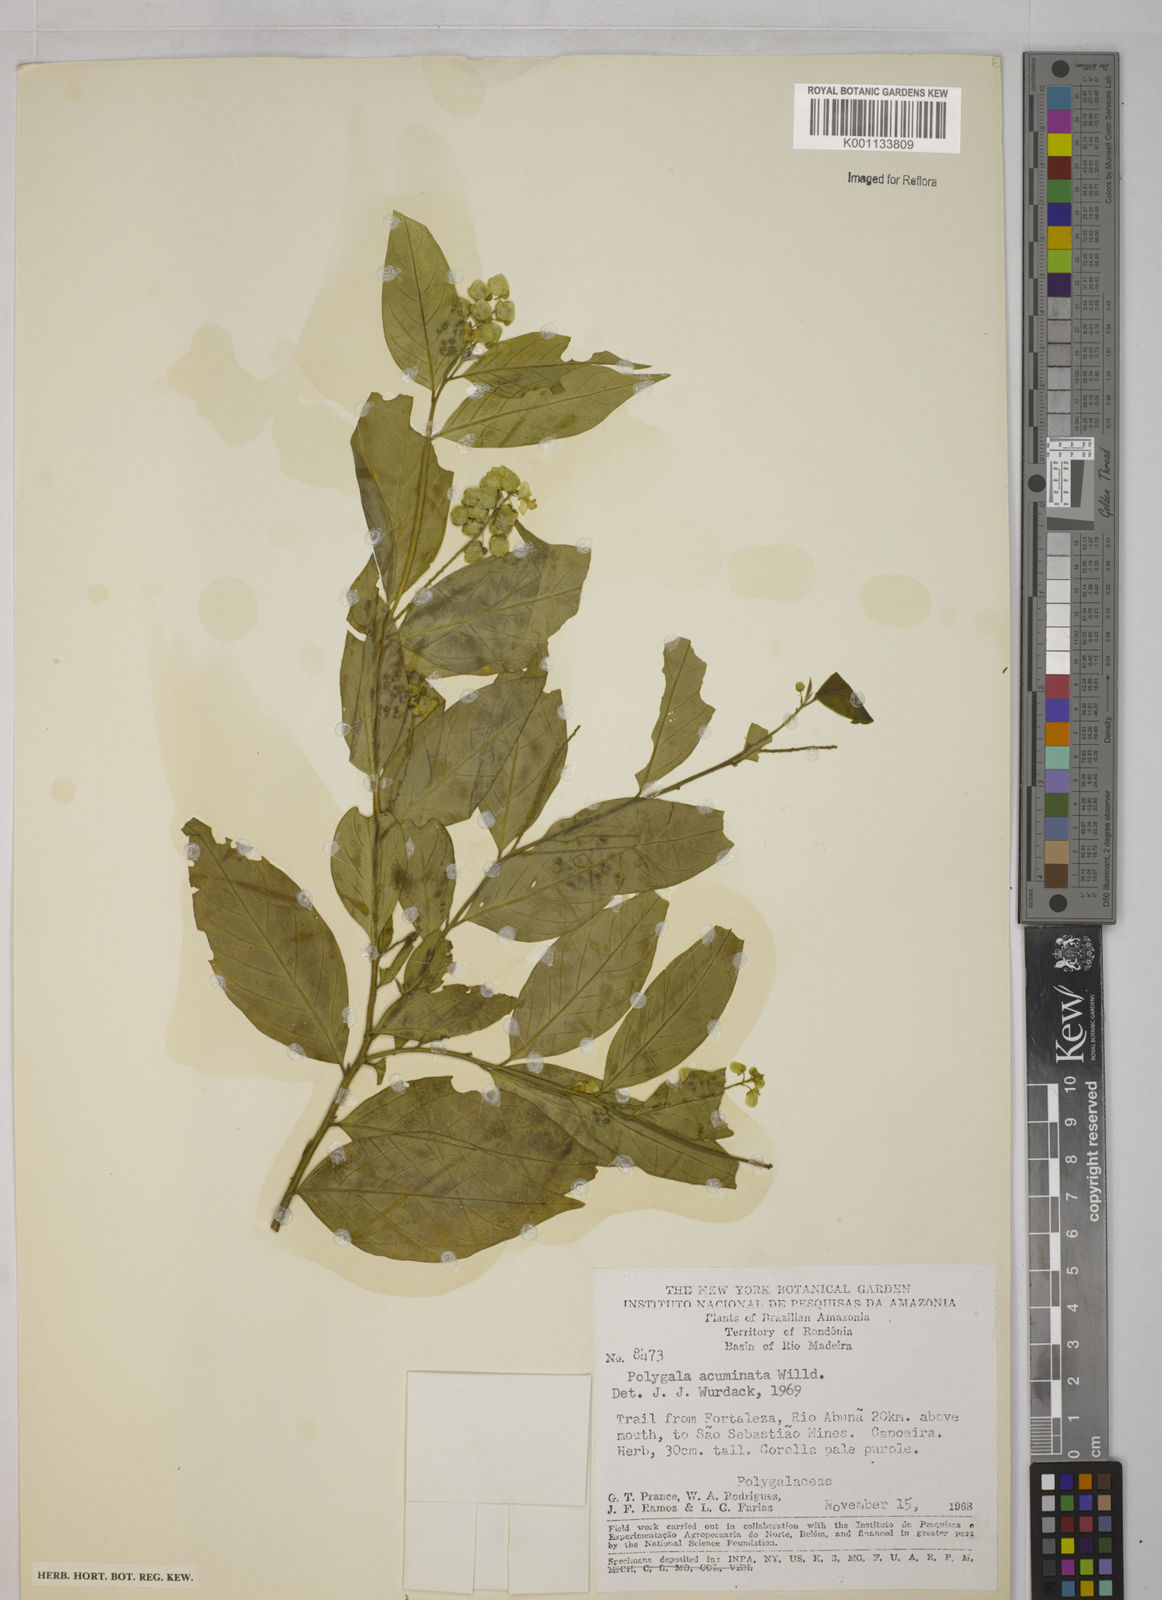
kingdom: Plantae
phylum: Tracheophyta
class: Magnoliopsida
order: Fabales
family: Polygalaceae
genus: Polygala
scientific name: Polygala
